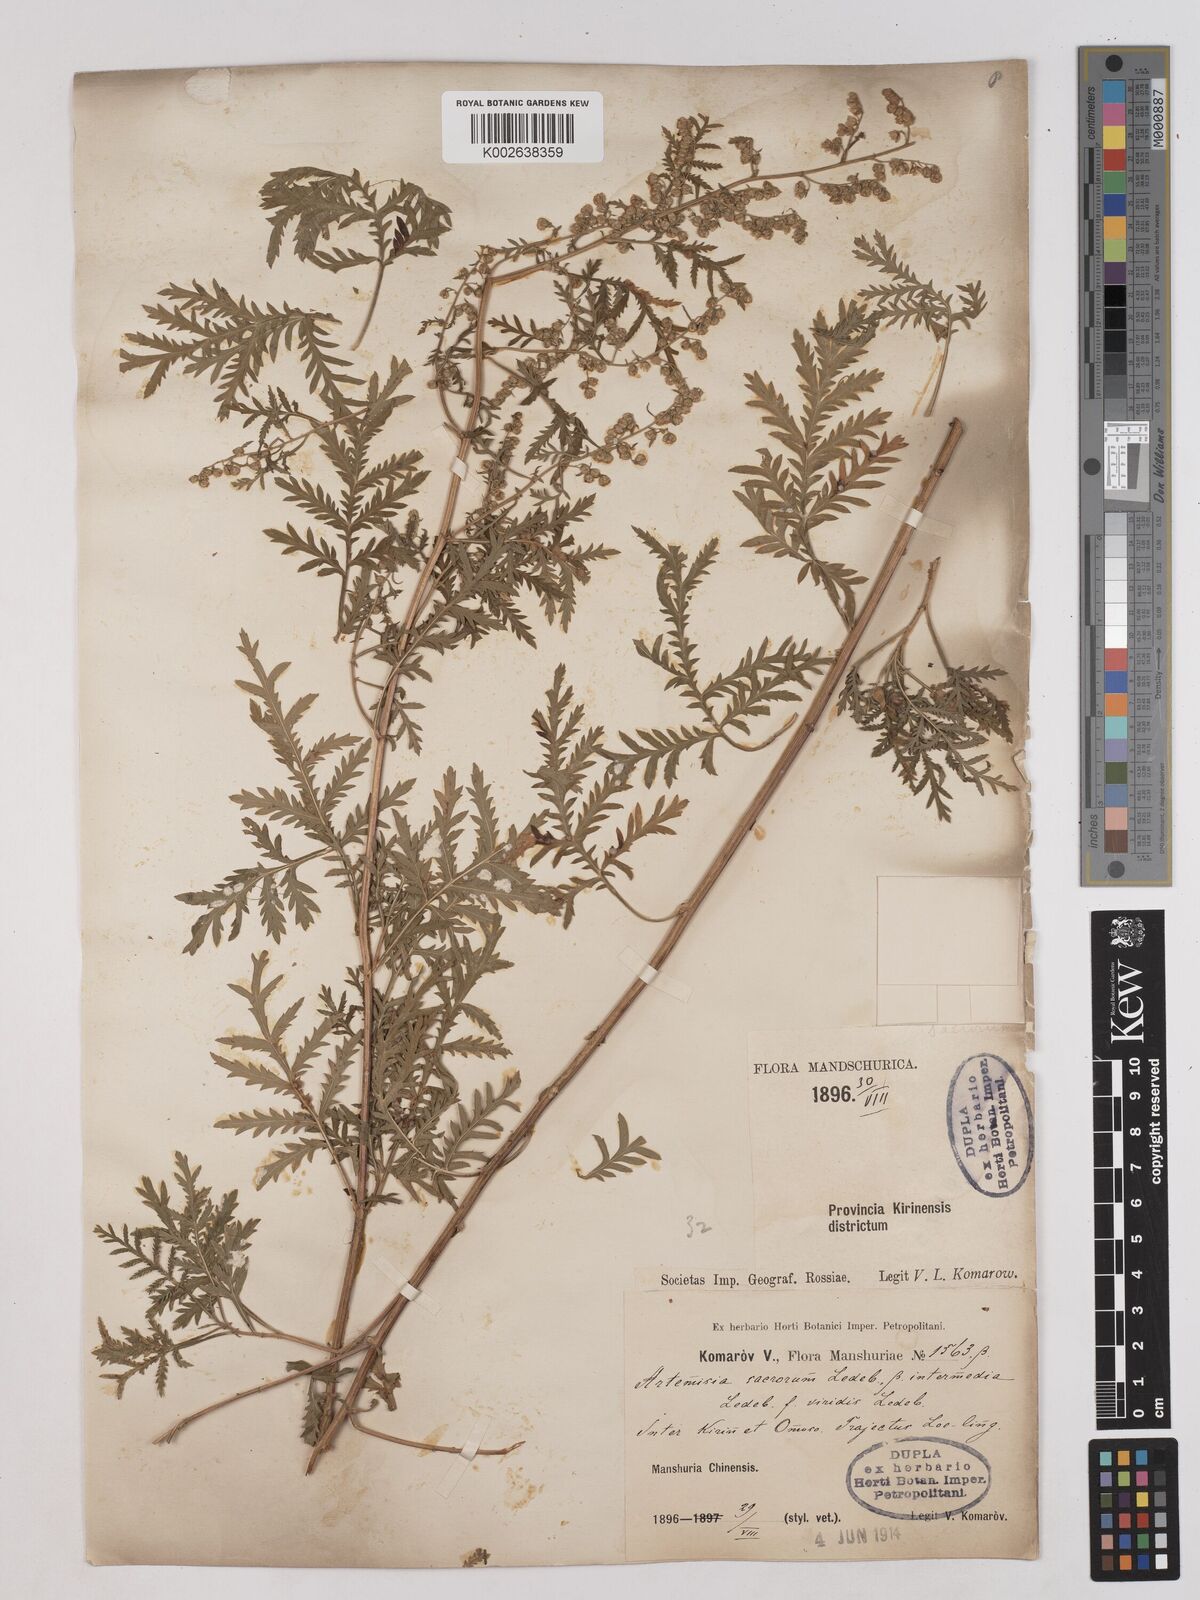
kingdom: Plantae
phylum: Tracheophyta
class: Magnoliopsida
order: Asterales
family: Asteraceae
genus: Artemisia
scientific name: Artemisia gmelinii
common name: Gmelin's wormwood
